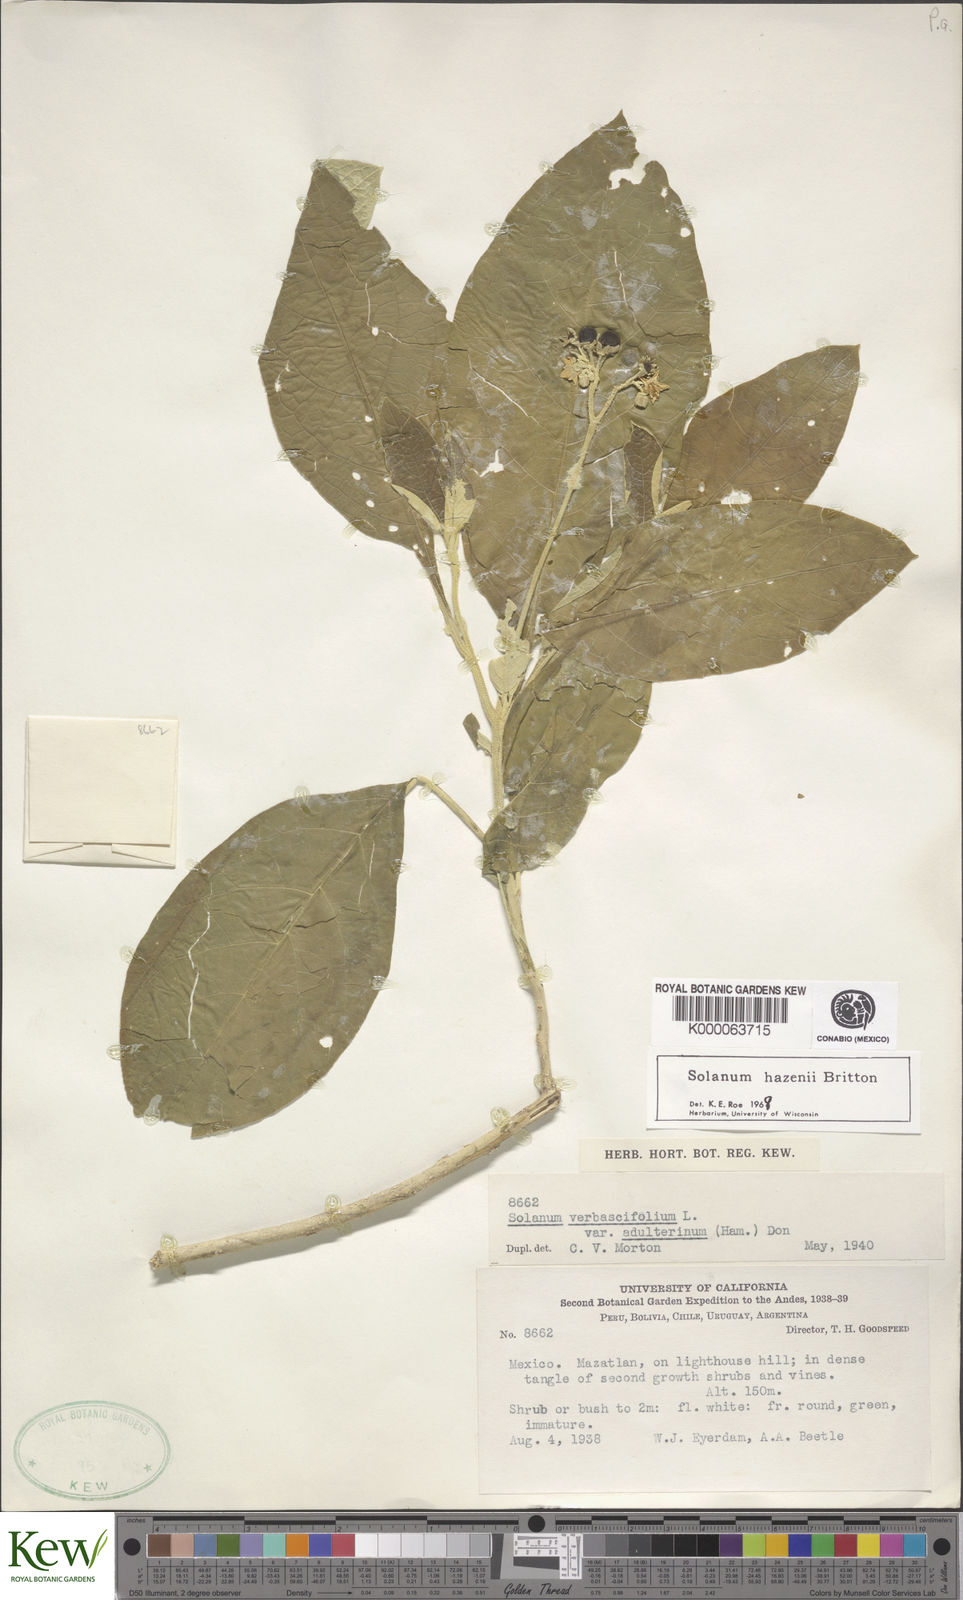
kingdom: Plantae
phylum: Tracheophyta
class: Magnoliopsida
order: Solanales
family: Solanaceae
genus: Solanum
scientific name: Solanum hazenii
